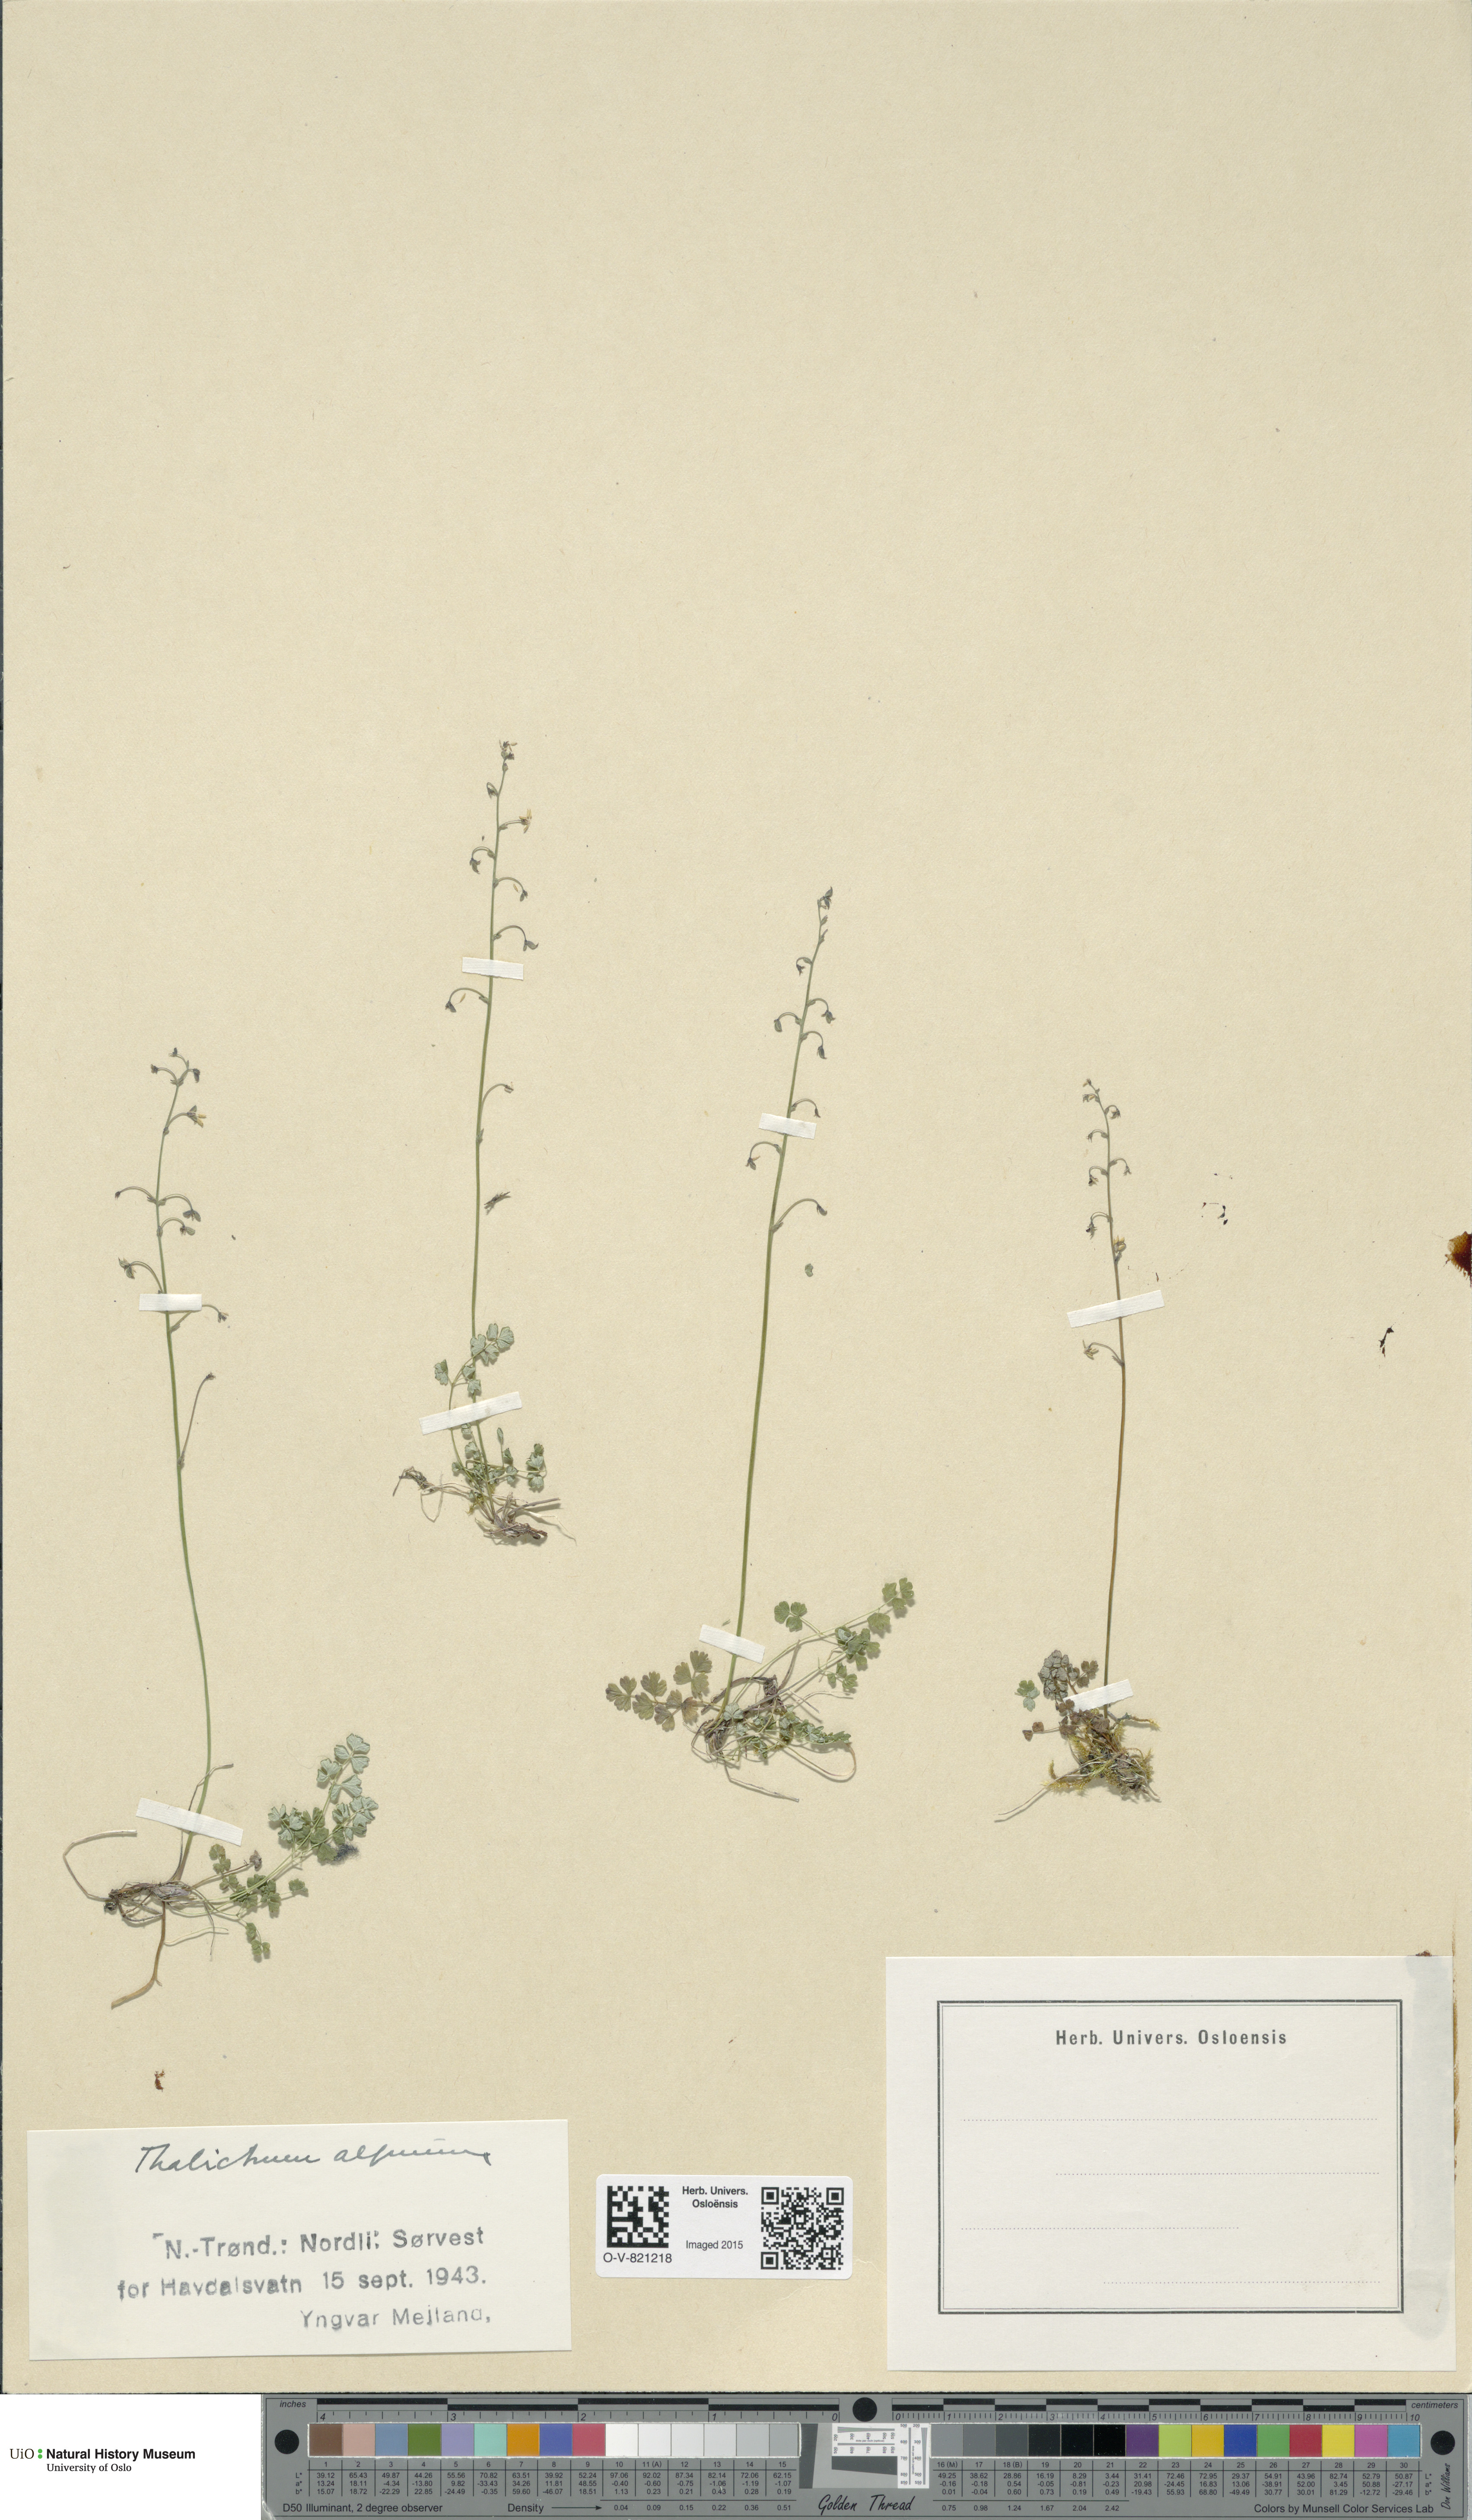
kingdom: Plantae
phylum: Tracheophyta
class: Magnoliopsida
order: Ranunculales
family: Ranunculaceae
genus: Thalictrum
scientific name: Thalictrum alpinum
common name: Alpine meadow-rue
